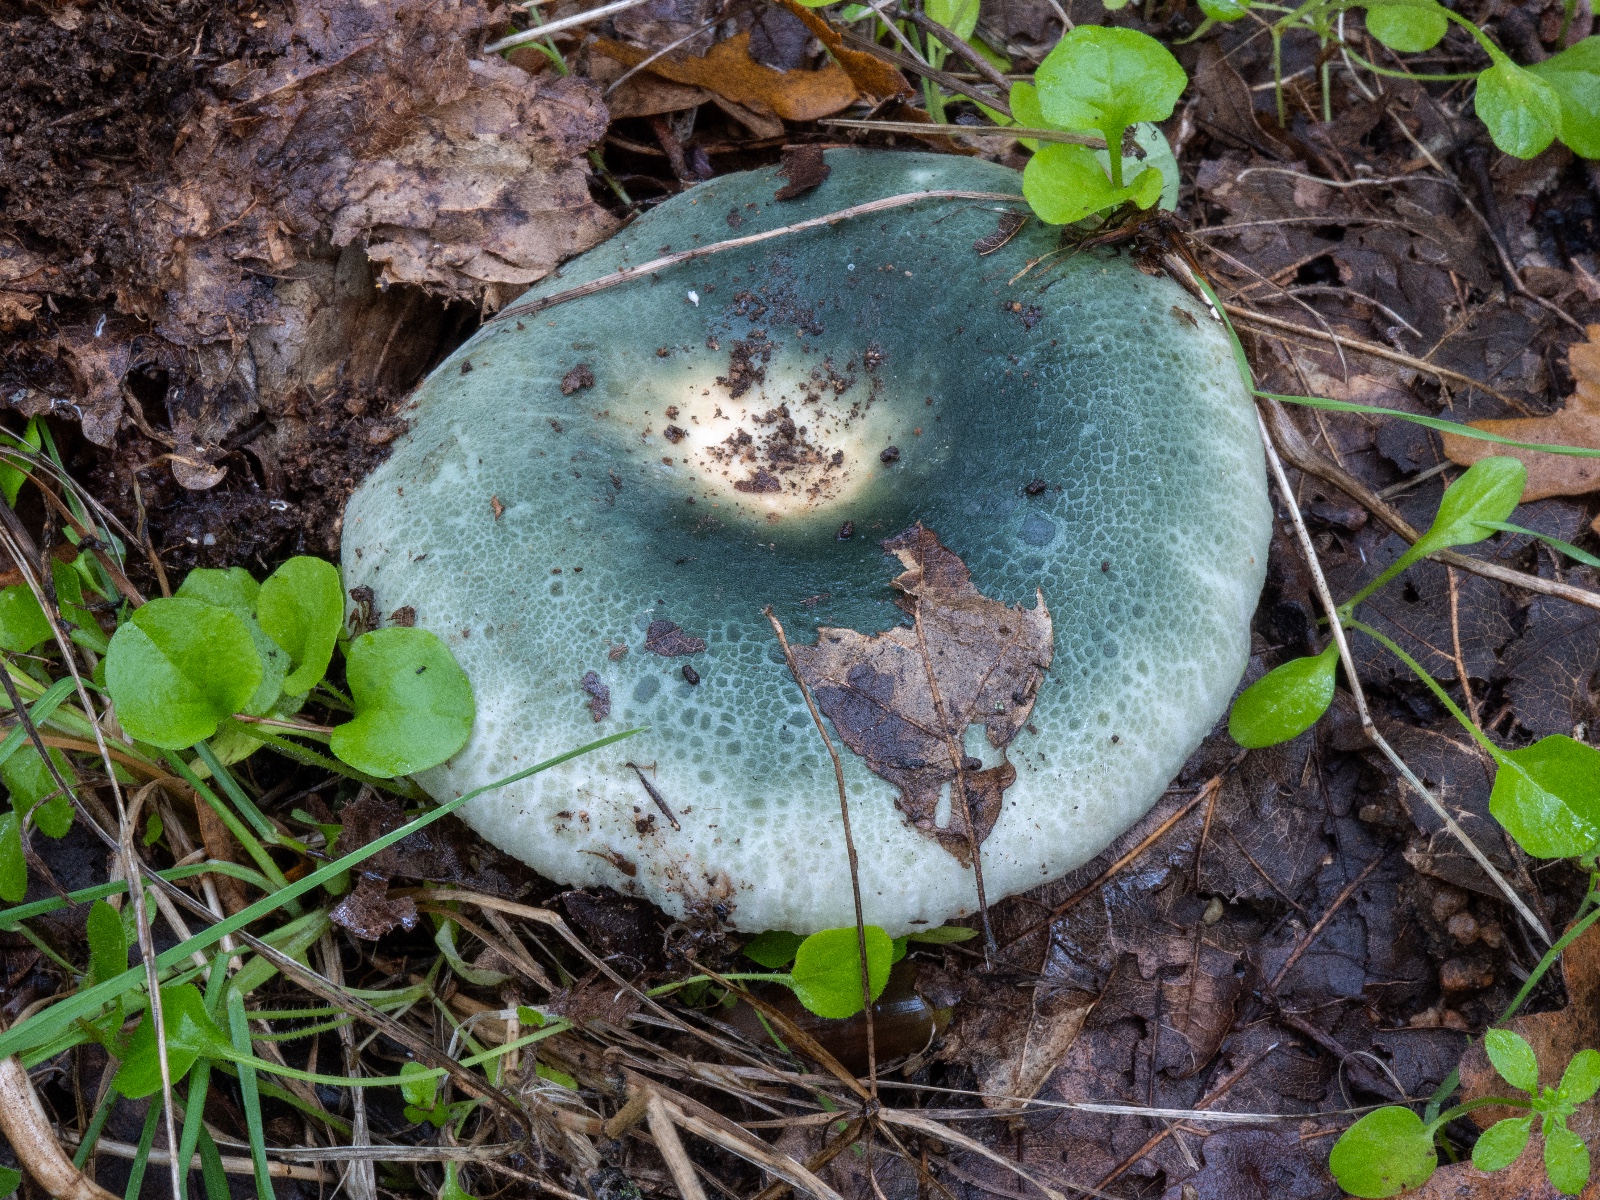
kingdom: Fungi
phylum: Basidiomycota
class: Agaricomycetes
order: Russulales
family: Russulaceae
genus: Russula
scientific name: Russula virescens
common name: spanskgrøn skørhat
